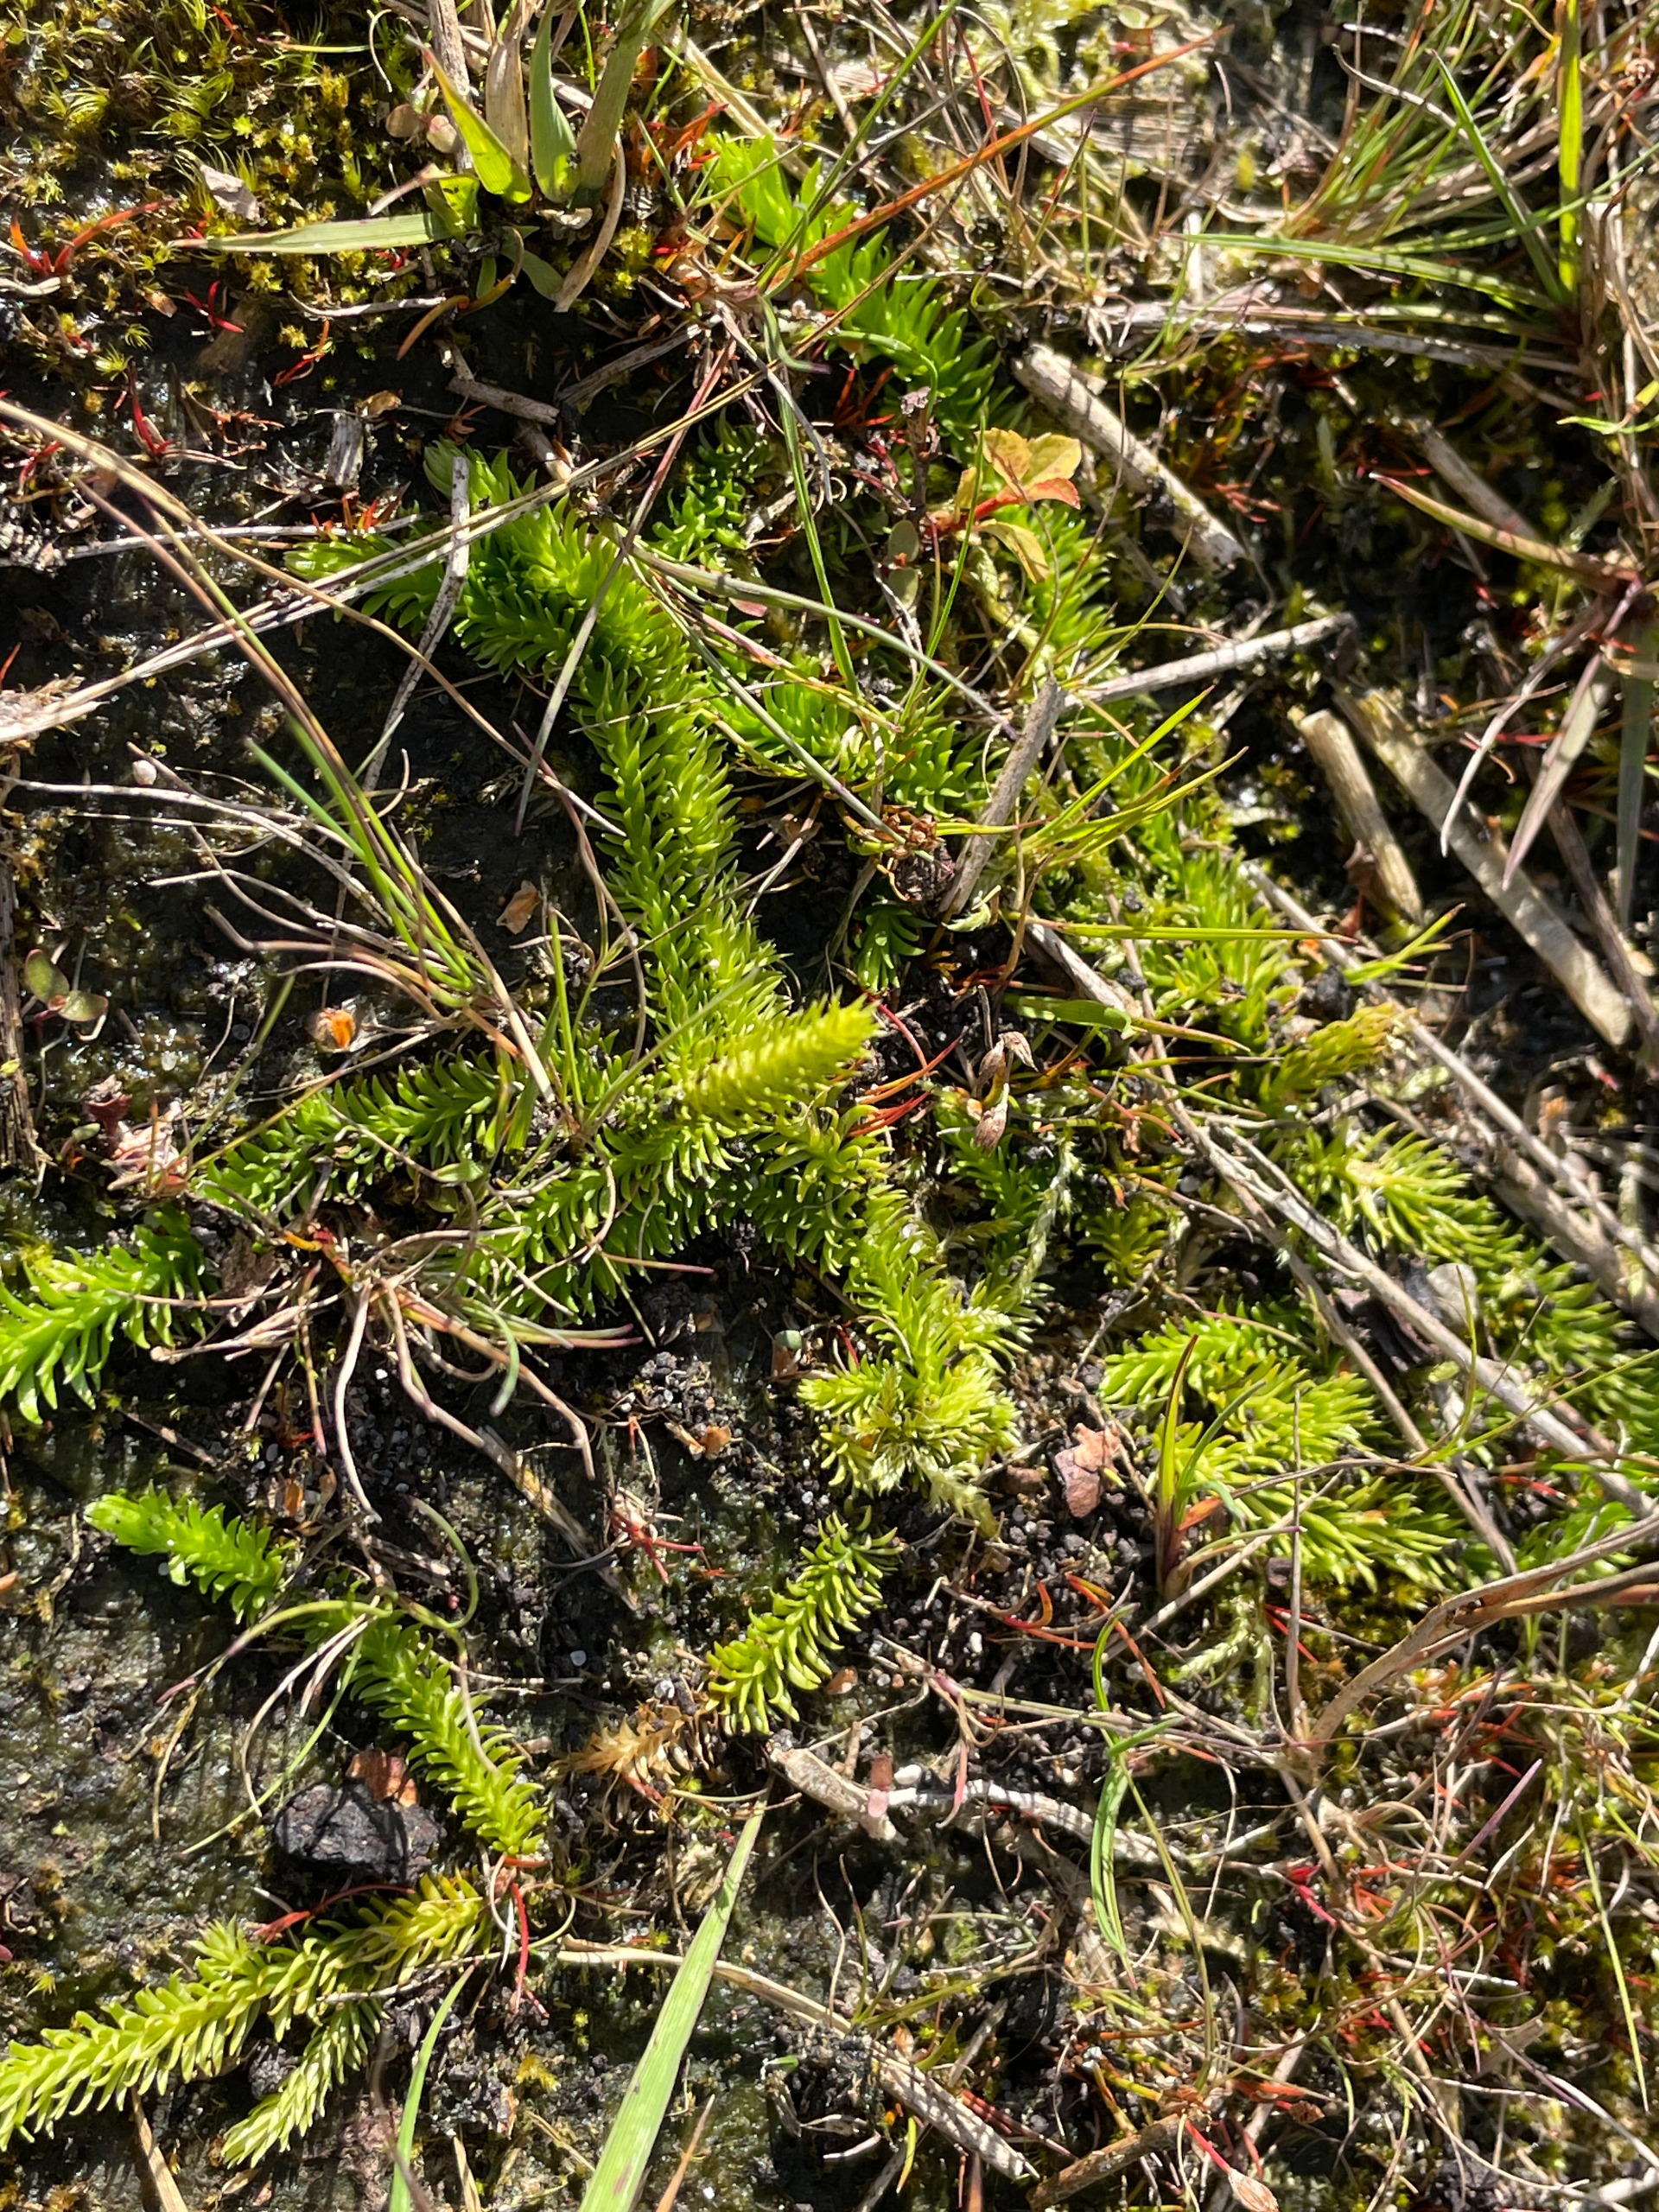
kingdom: Plantae
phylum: Tracheophyta
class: Lycopodiopsida
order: Lycopodiales
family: Lycopodiaceae
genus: Lycopodiella
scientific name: Lycopodiella inundata
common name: Liden ulvefod
